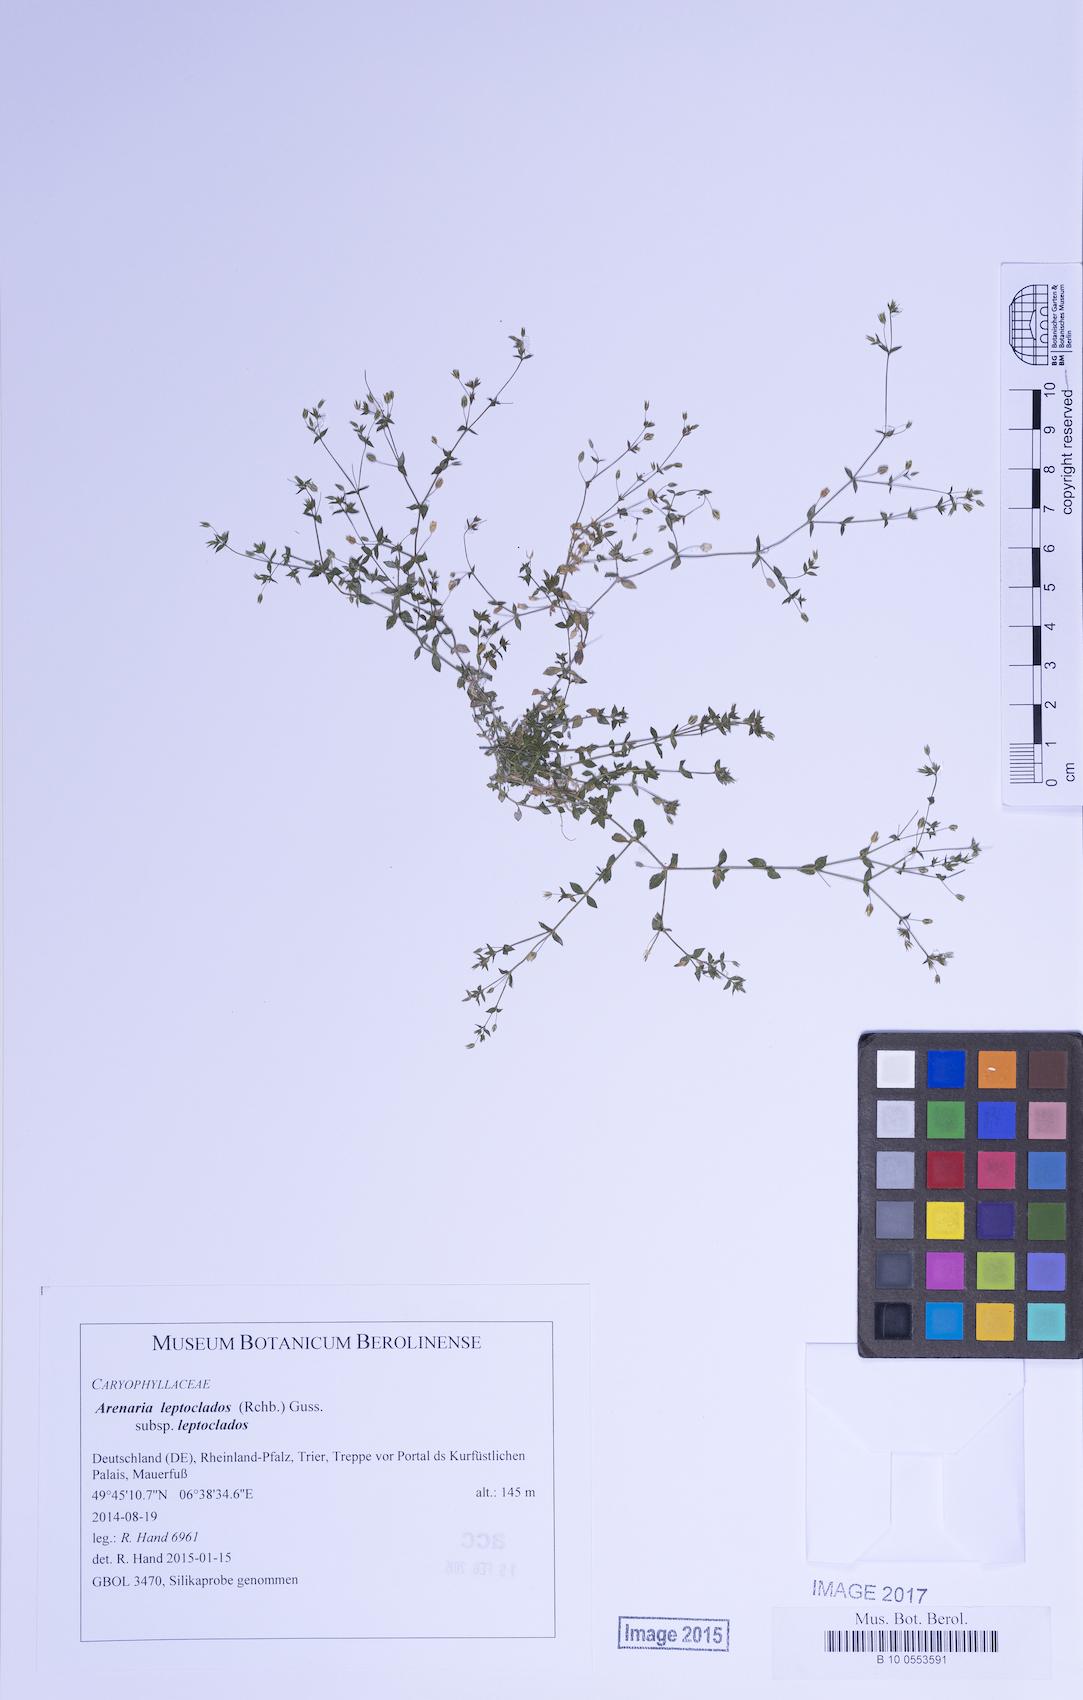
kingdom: Plantae
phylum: Tracheophyta
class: Magnoliopsida
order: Caryophyllales
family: Caryophyllaceae
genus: Arenaria
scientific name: Arenaria leptoclados
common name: Thyme-leaved sandwort
